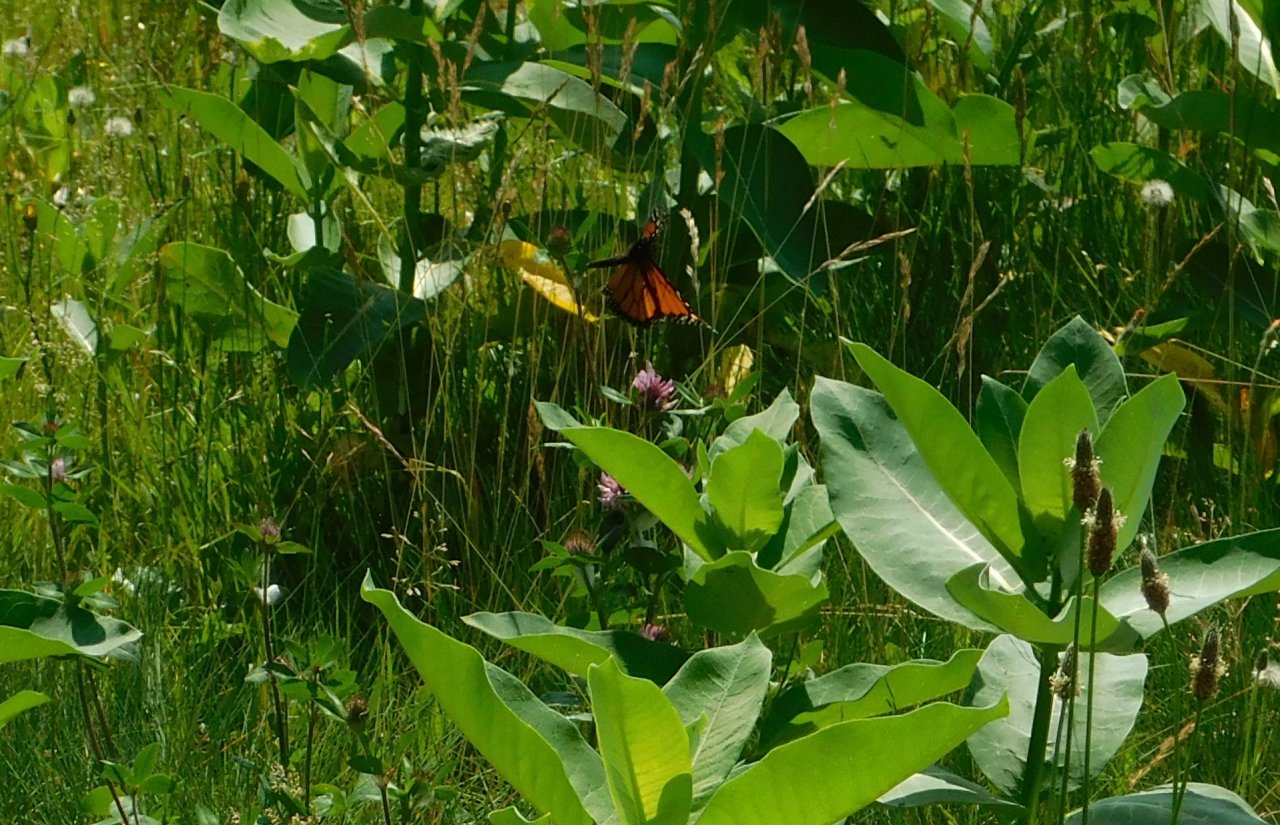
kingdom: Animalia
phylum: Arthropoda
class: Insecta
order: Lepidoptera
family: Nymphalidae
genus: Danaus
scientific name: Danaus plexippus
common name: Monarch
